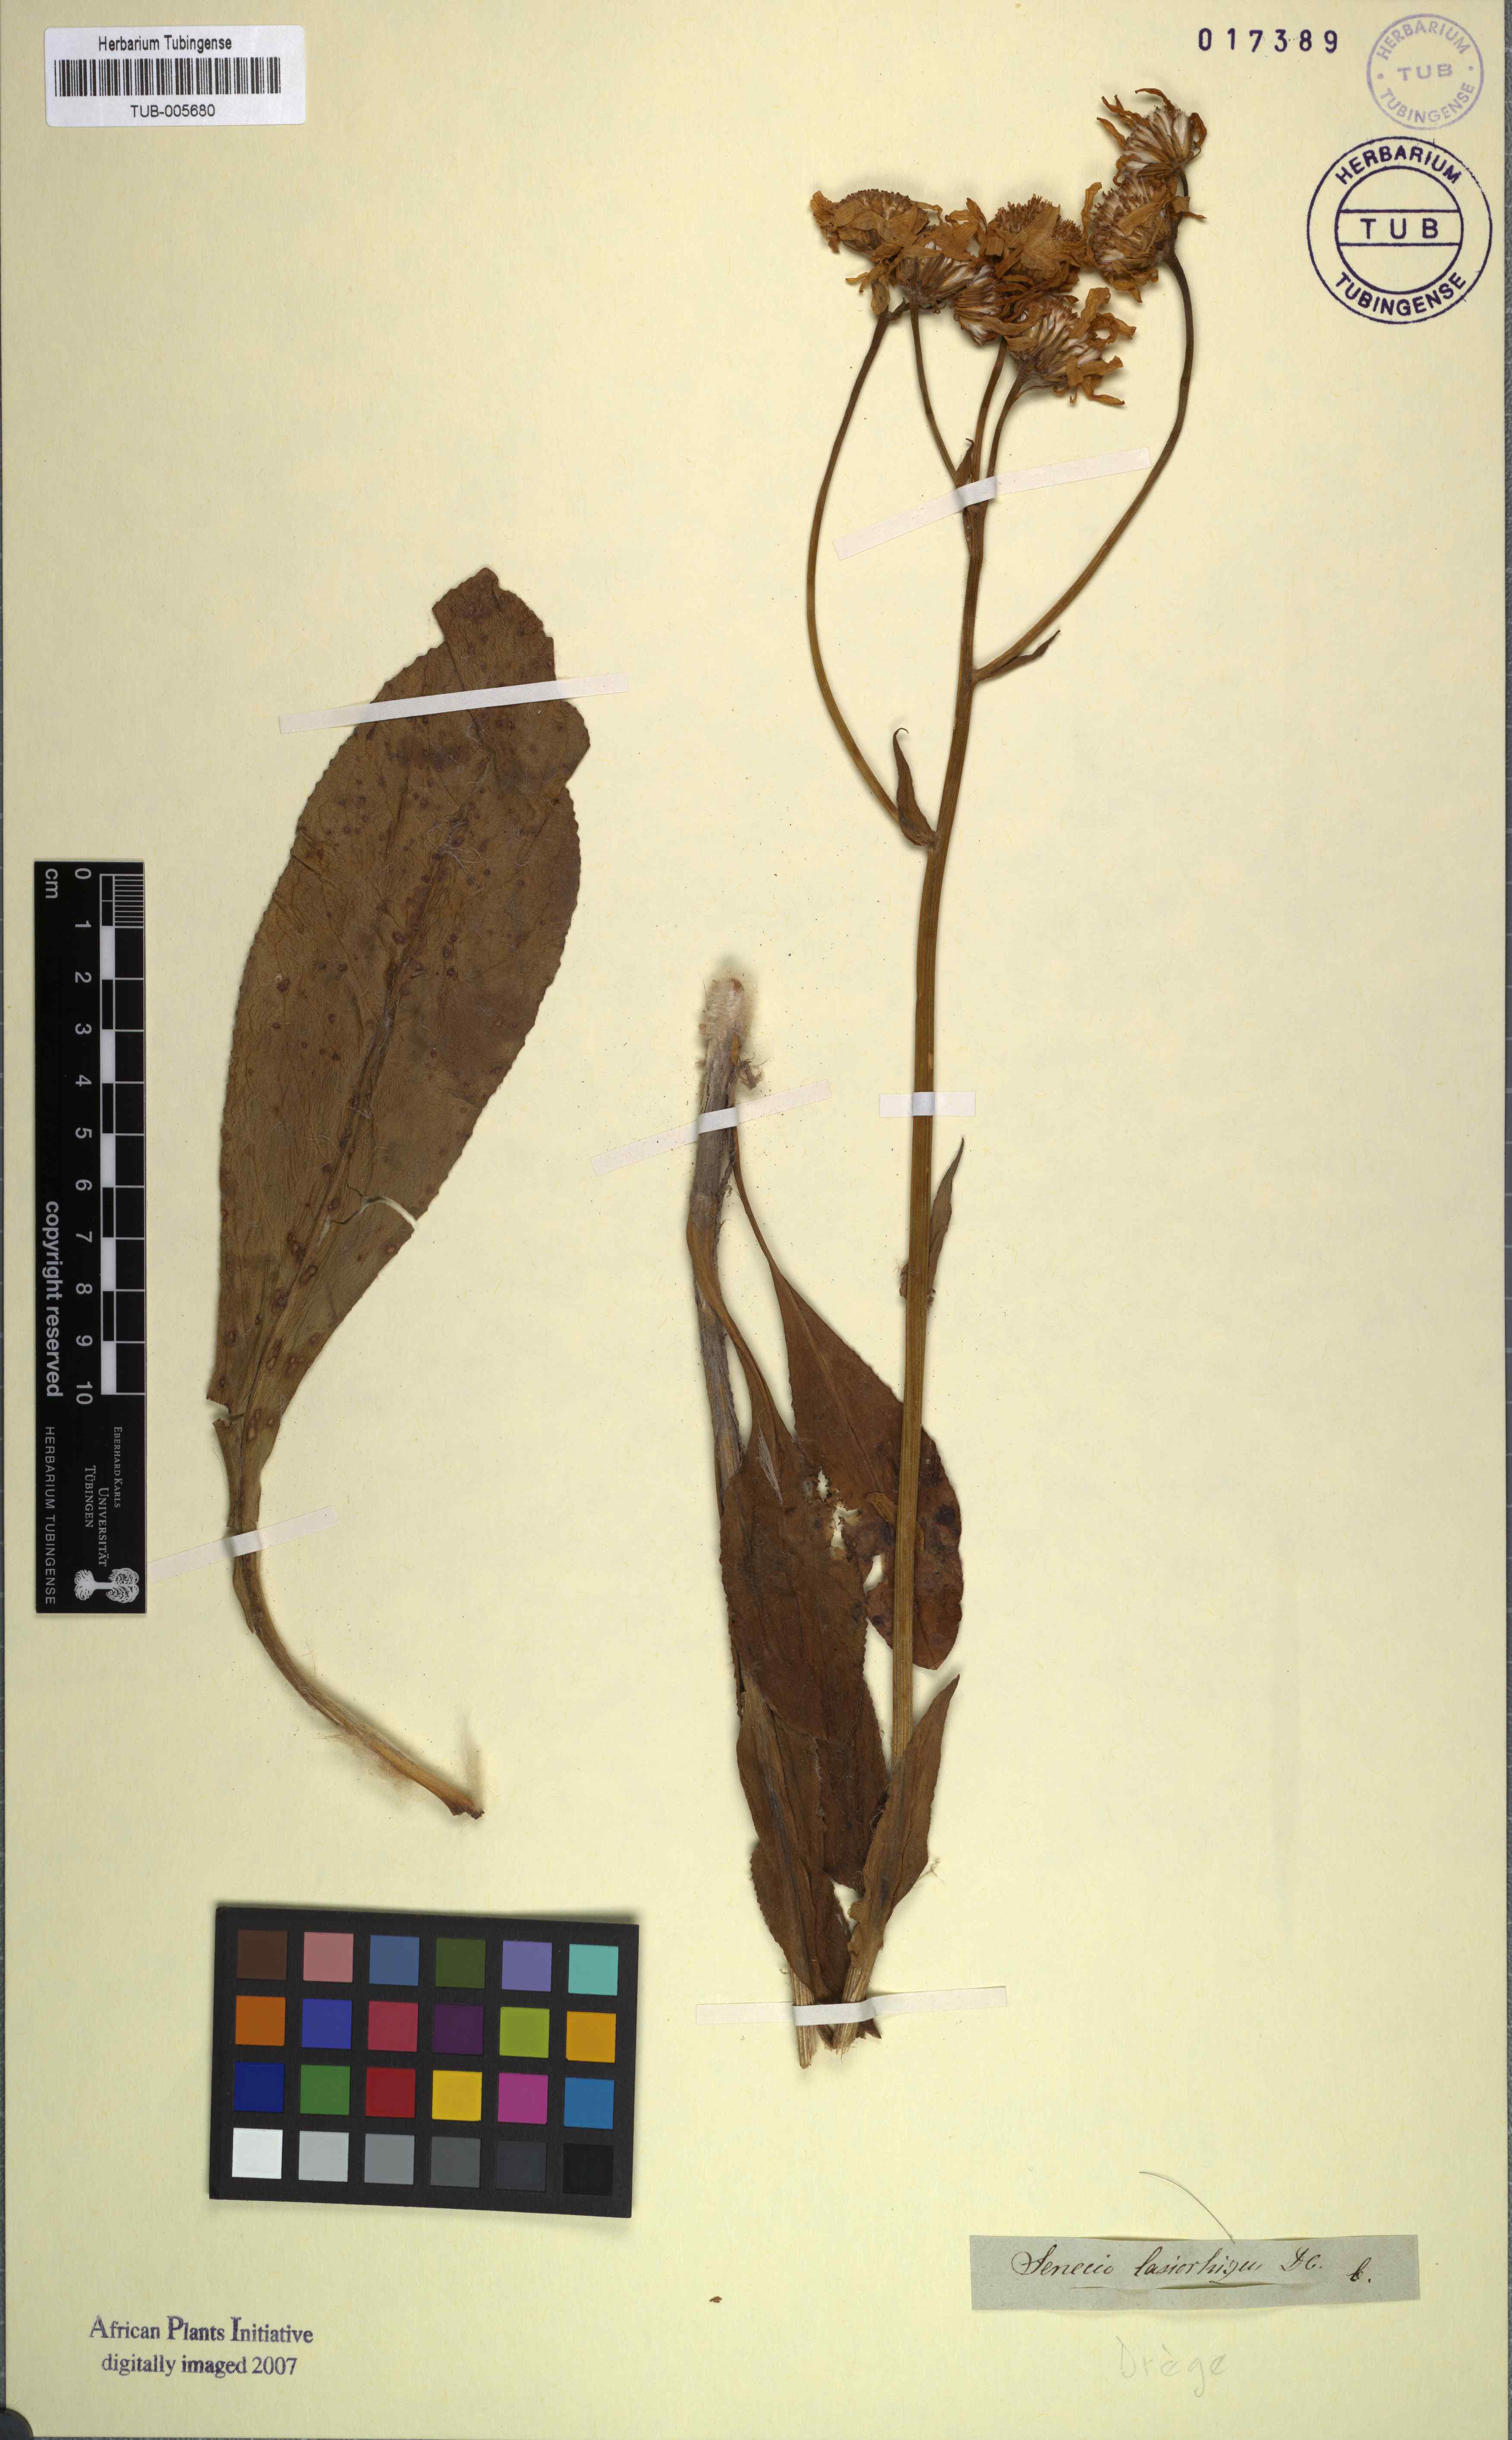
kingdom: Plantae
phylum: Tracheophyta
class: Magnoliopsida
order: Asterales
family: Asteraceae
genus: Senecio
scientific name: Senecio coronatus
